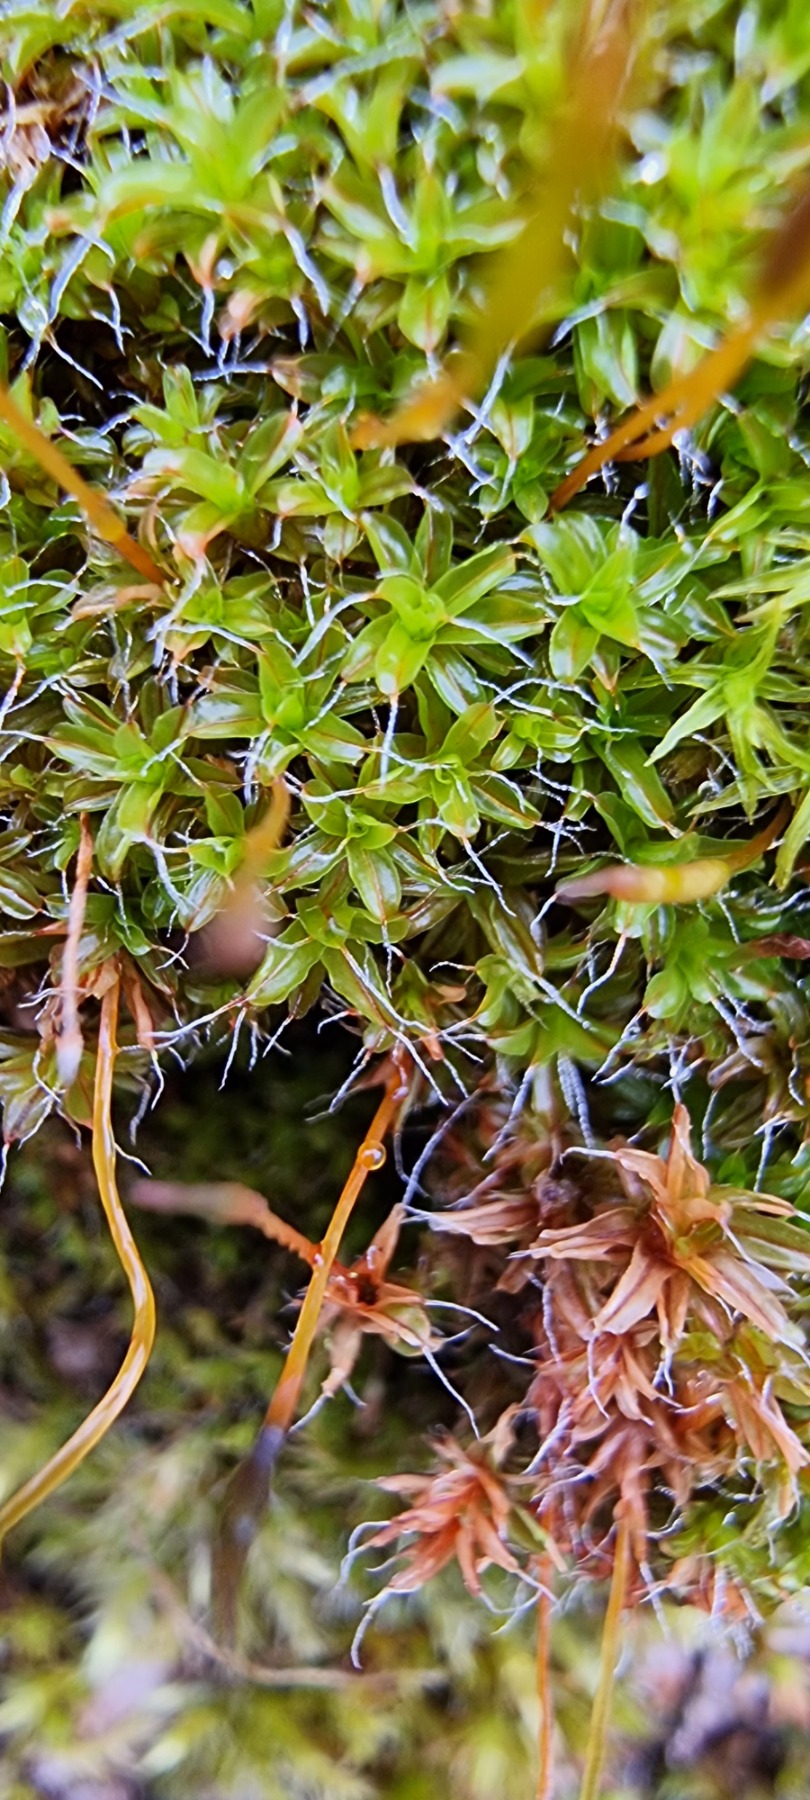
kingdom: Plantae
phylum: Bryophyta
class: Bryopsida
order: Pottiales
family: Pottiaceae
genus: Syntrichia
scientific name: Syntrichia virescens
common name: Grøn hårstjerne
